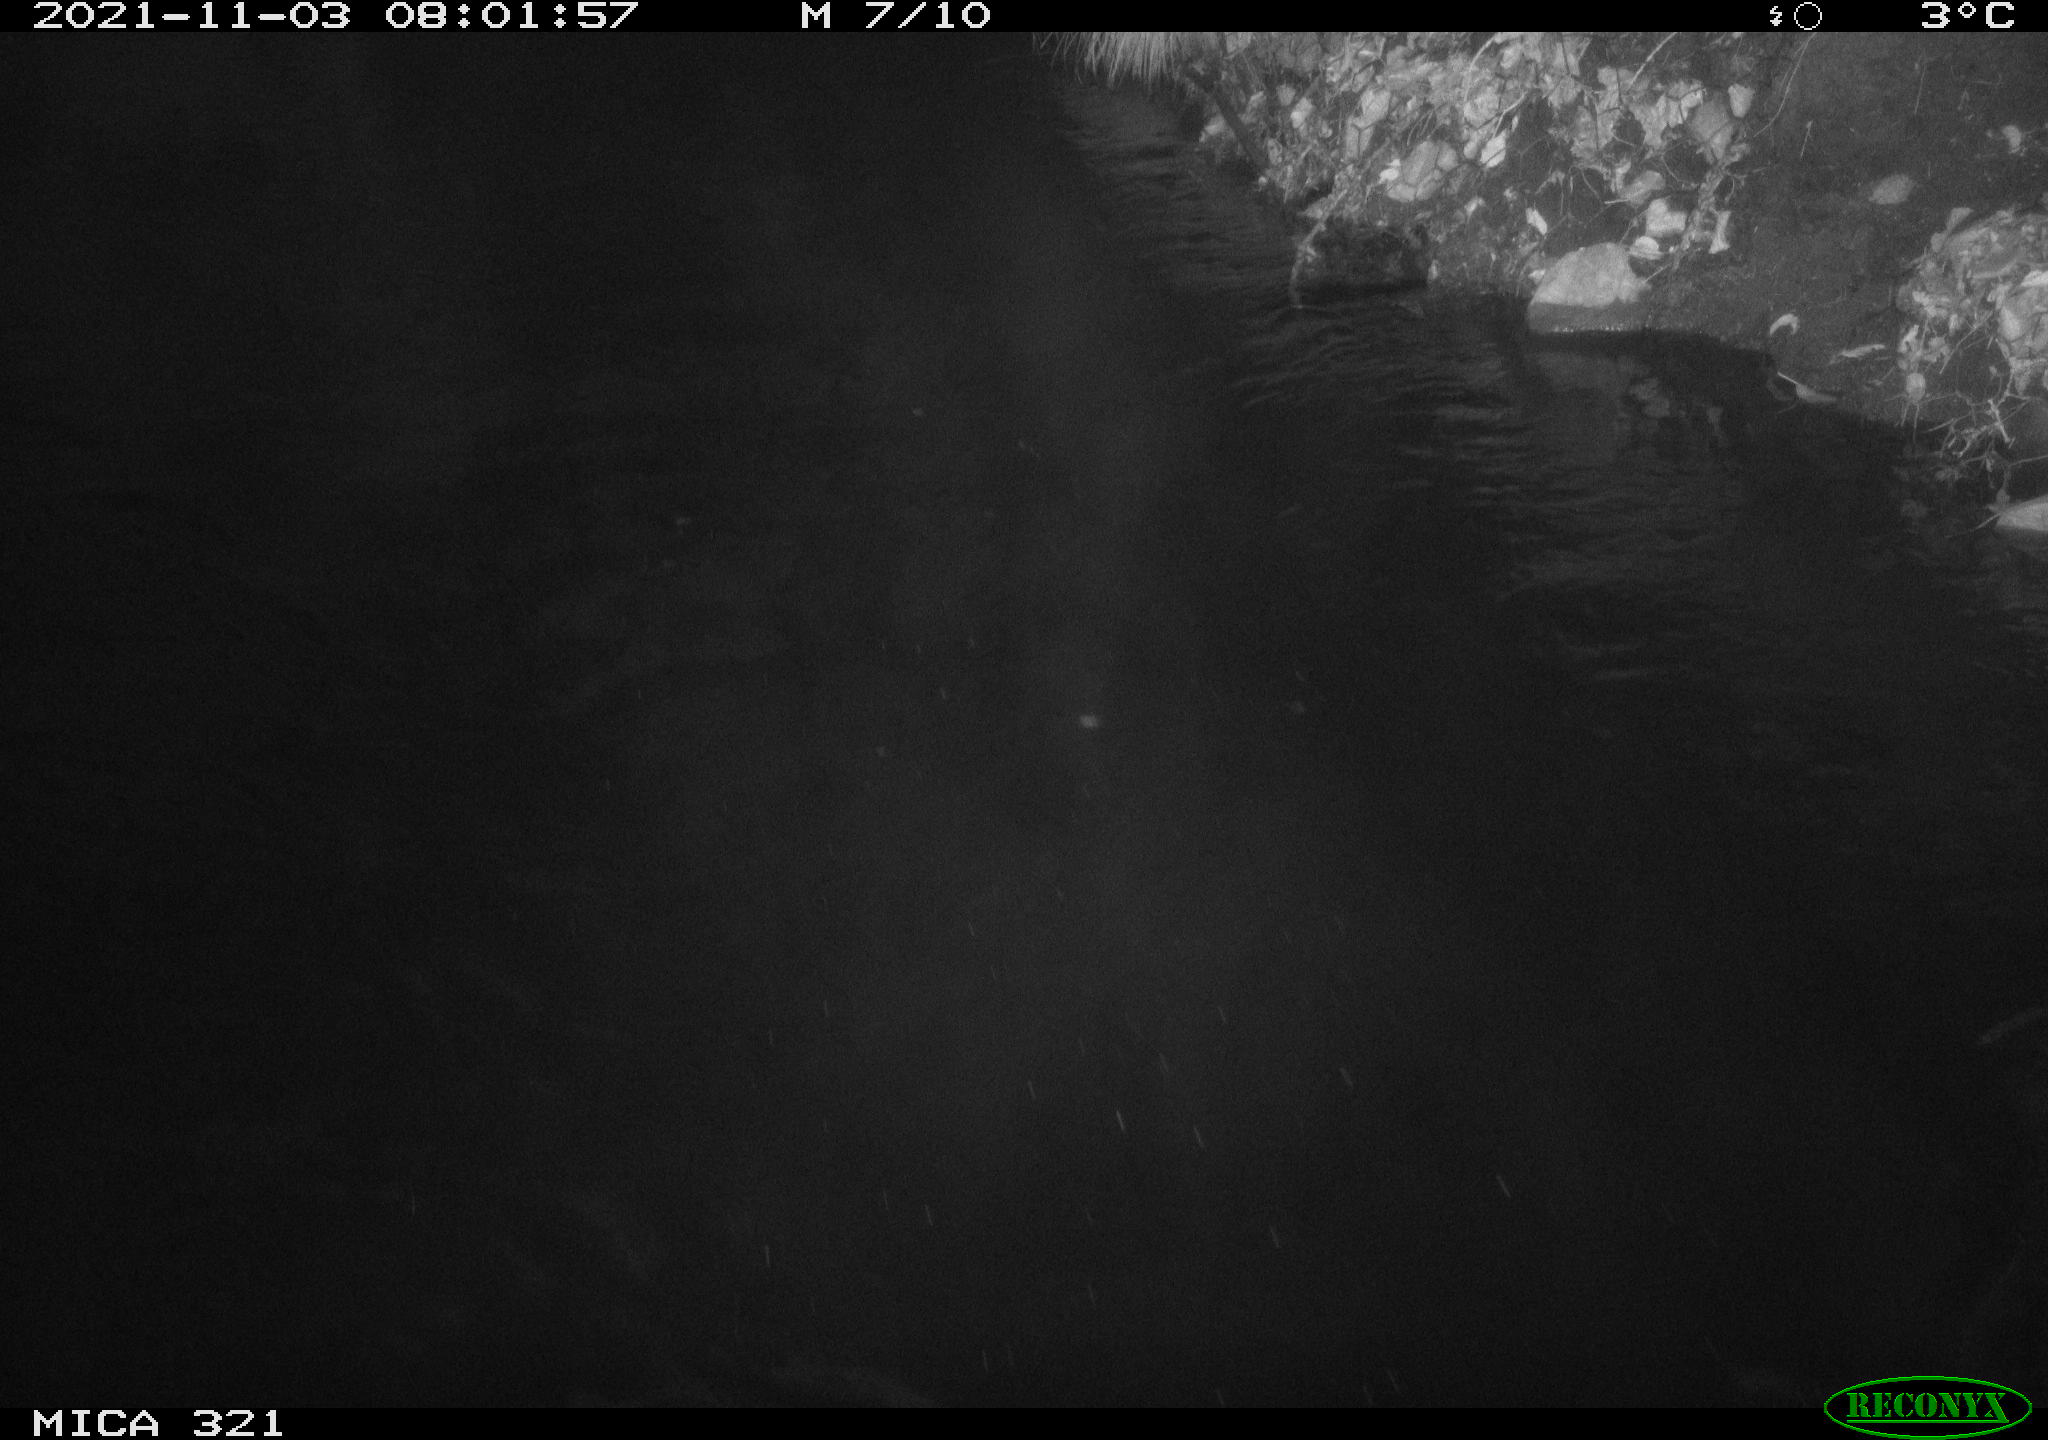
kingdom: Animalia
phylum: Chordata
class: Aves
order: Anseriformes
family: Anatidae
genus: Anas
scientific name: Anas platyrhynchos
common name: Mallard
